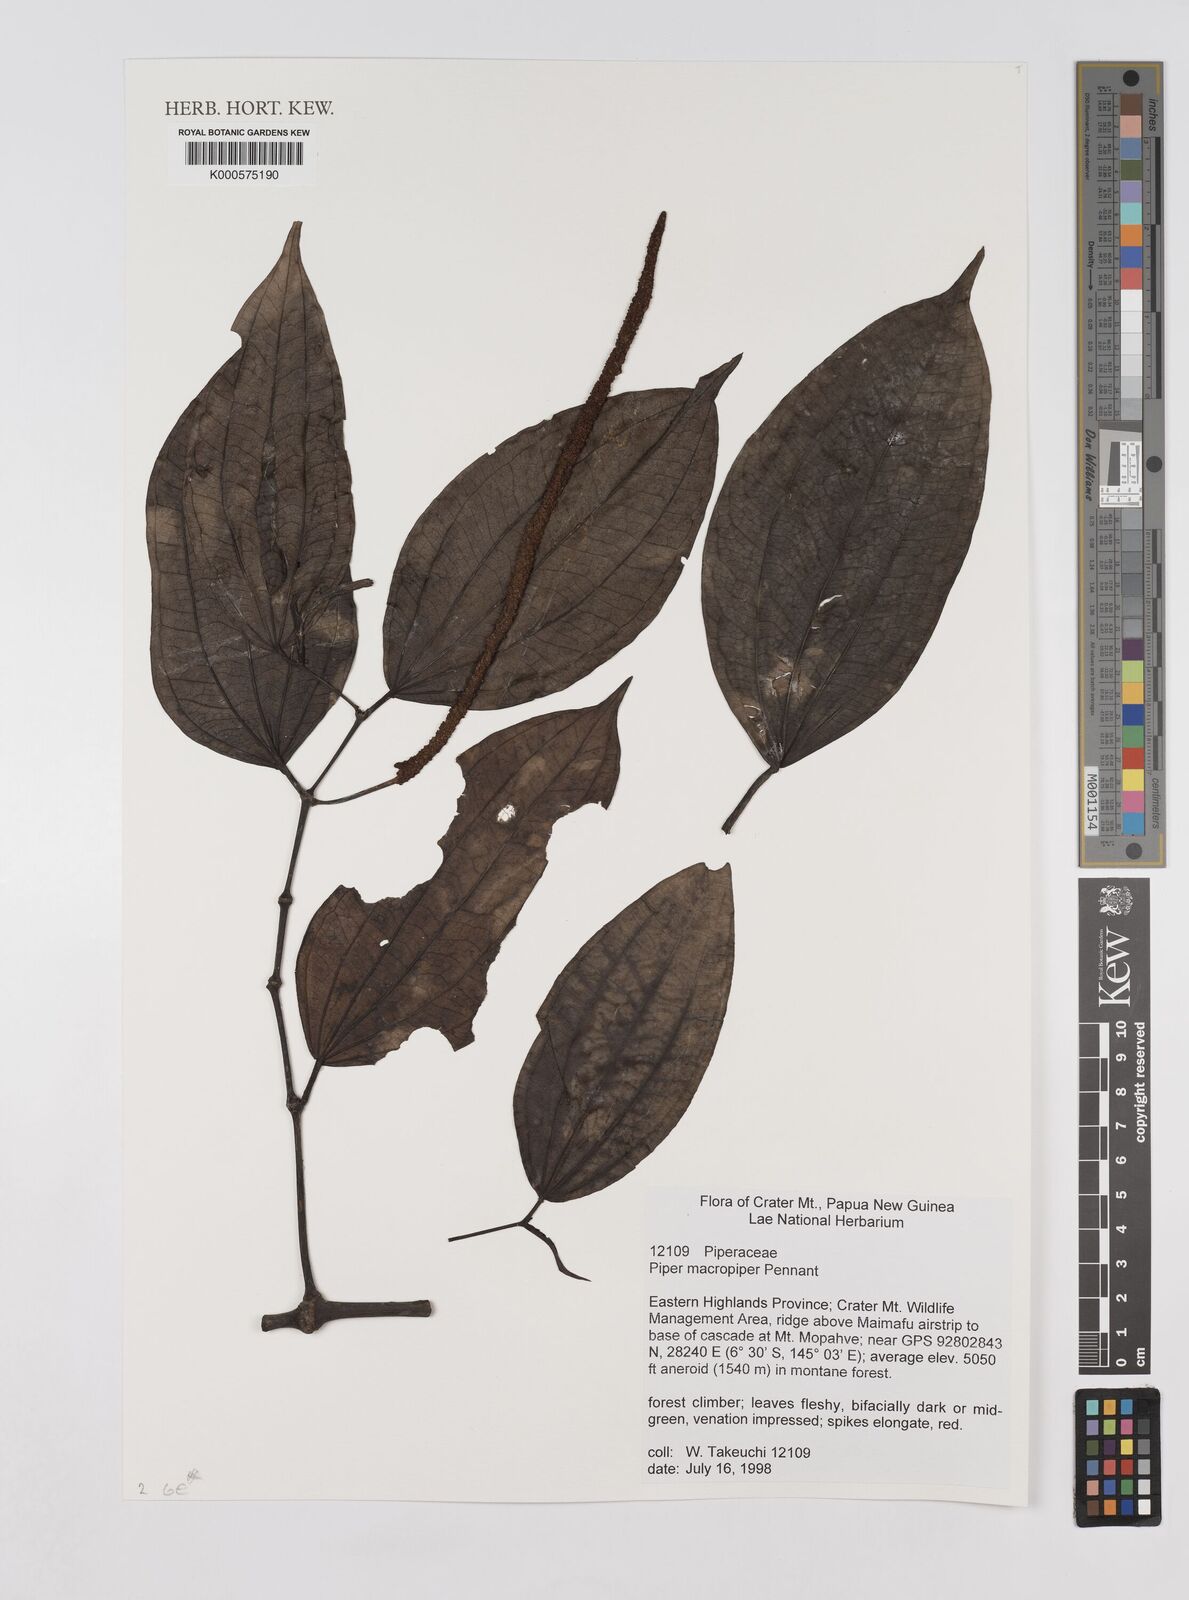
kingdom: Plantae
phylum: Tracheophyta
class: Magnoliopsida
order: Piperales
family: Piperaceae
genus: Piper
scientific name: Piper macropiper
